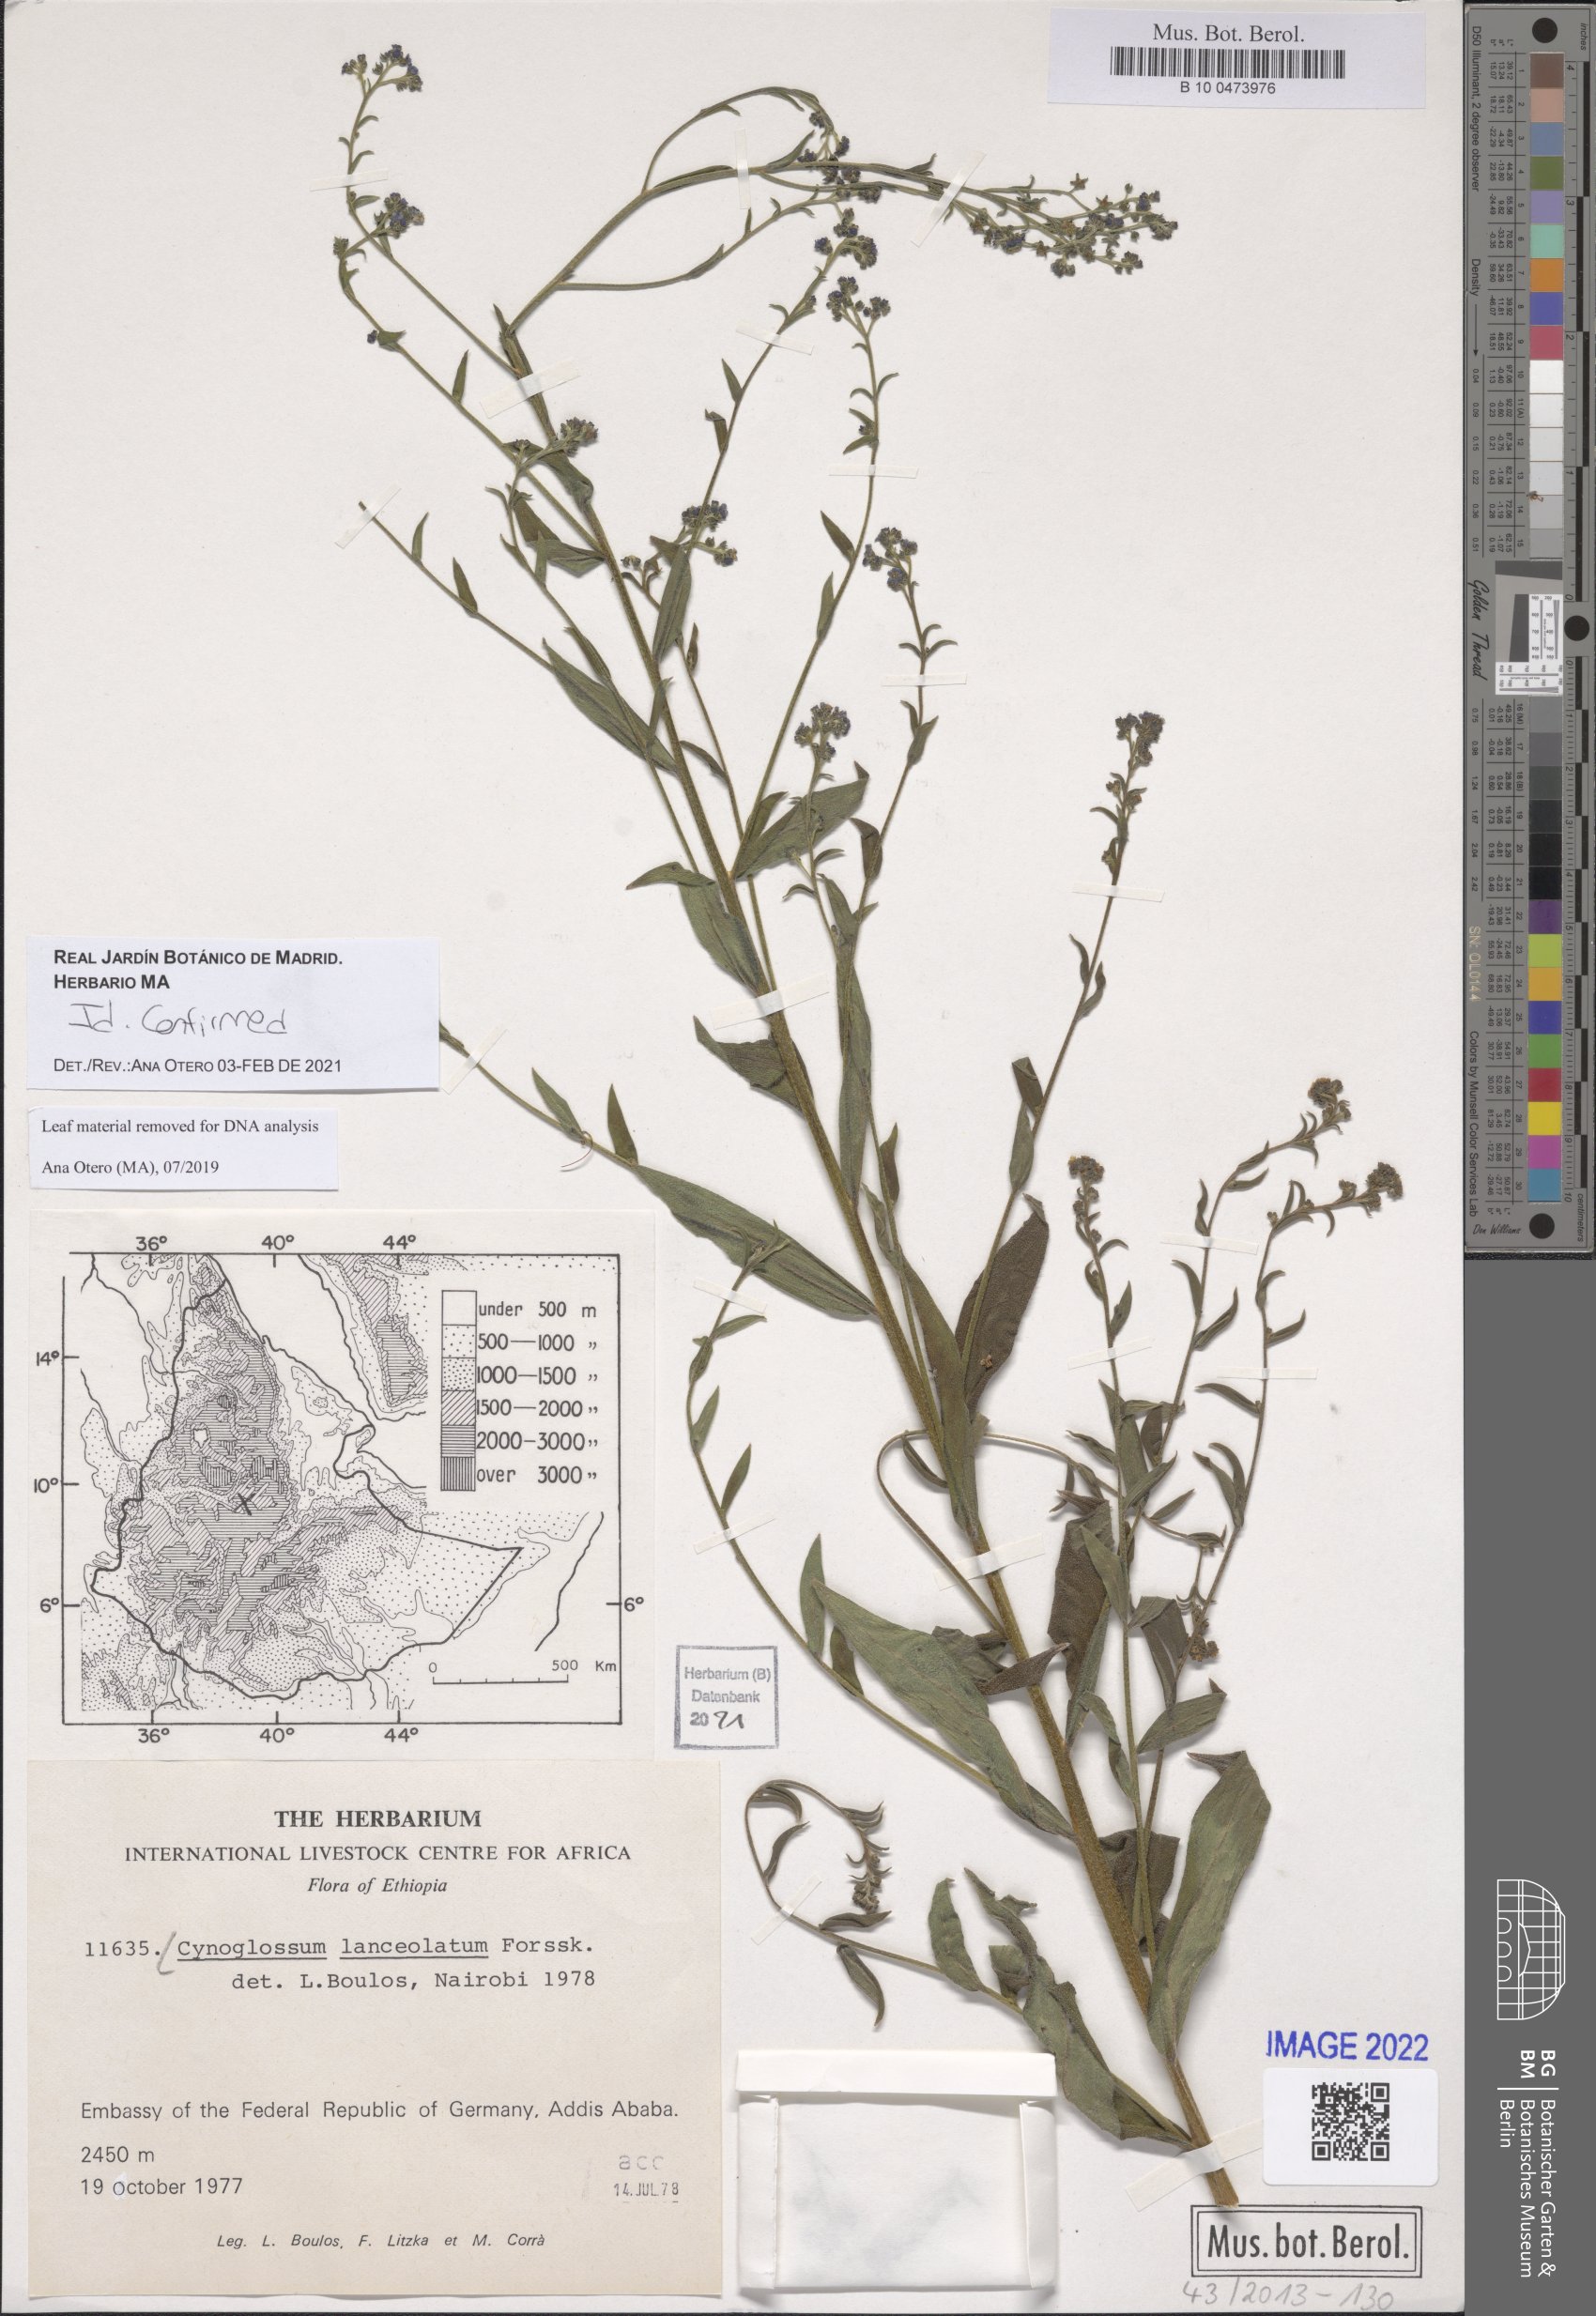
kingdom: Plantae
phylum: Tracheophyta
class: Magnoliopsida
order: Boraginales
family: Boraginaceae
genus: Paracynoglossum
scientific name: Paracynoglossum lanceolatum
